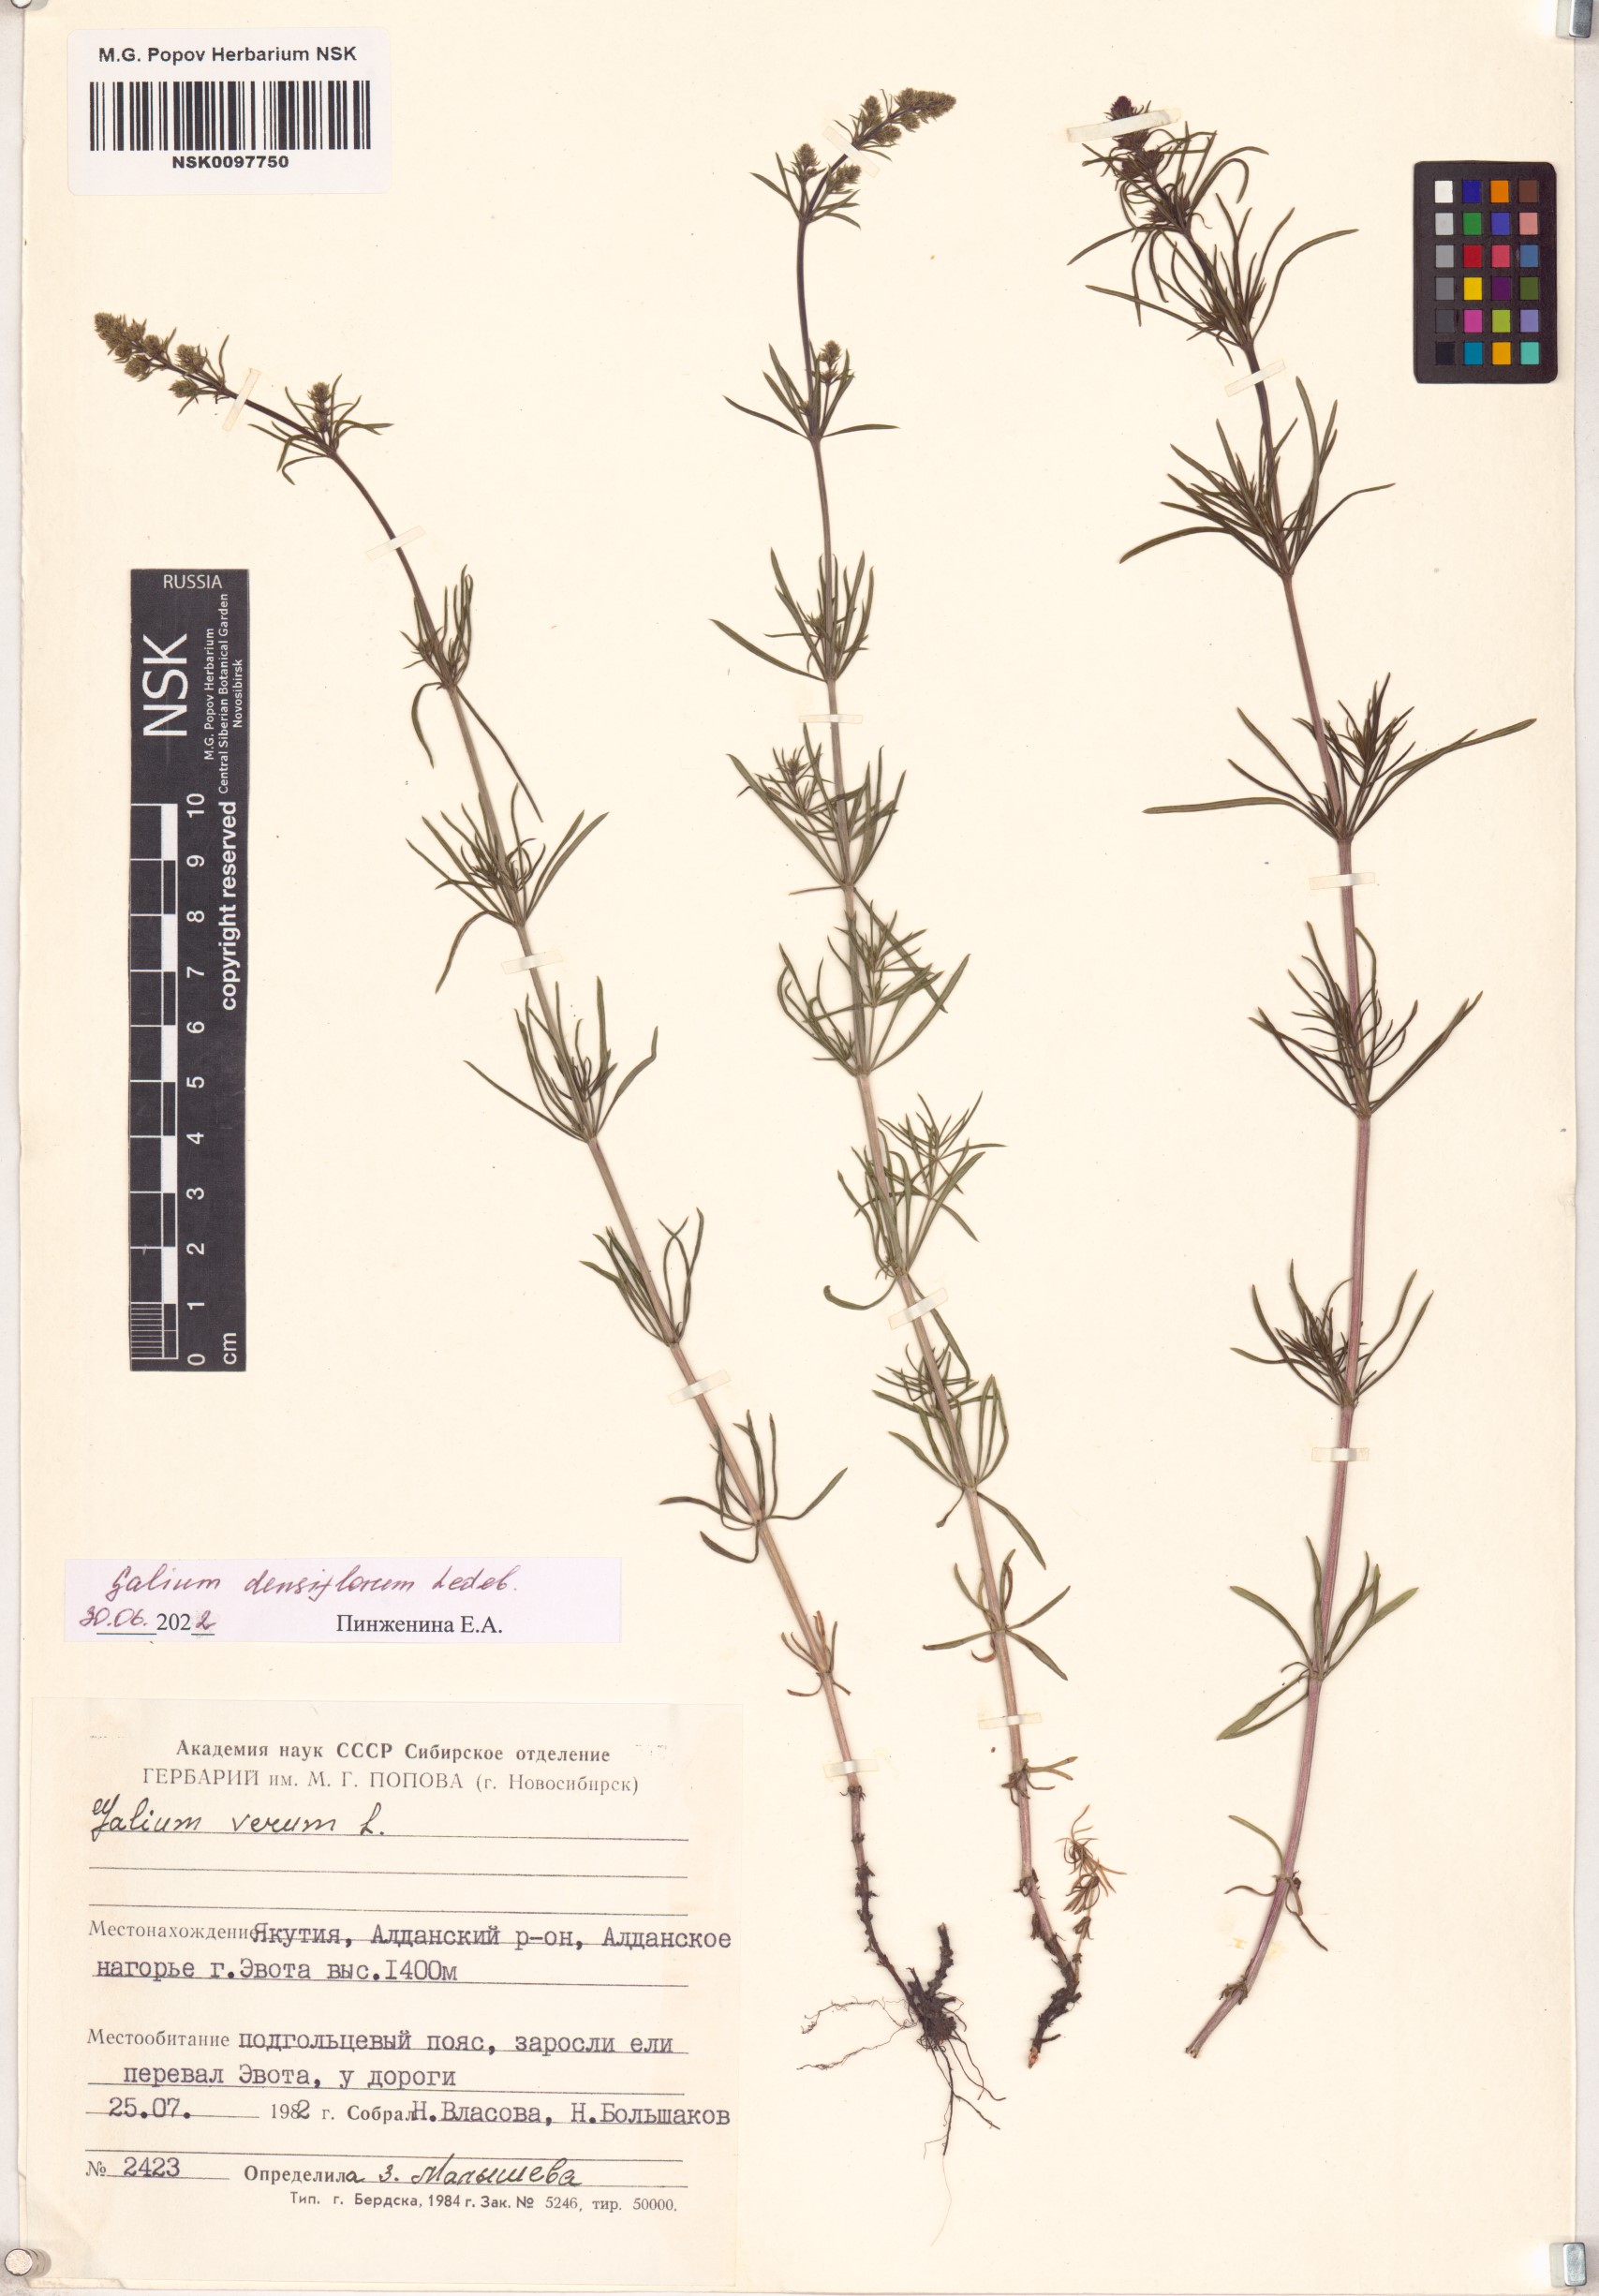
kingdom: Plantae
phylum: Tracheophyta
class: Magnoliopsida
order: Gentianales
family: Rubiaceae
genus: Galium
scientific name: Galium densiflorum
